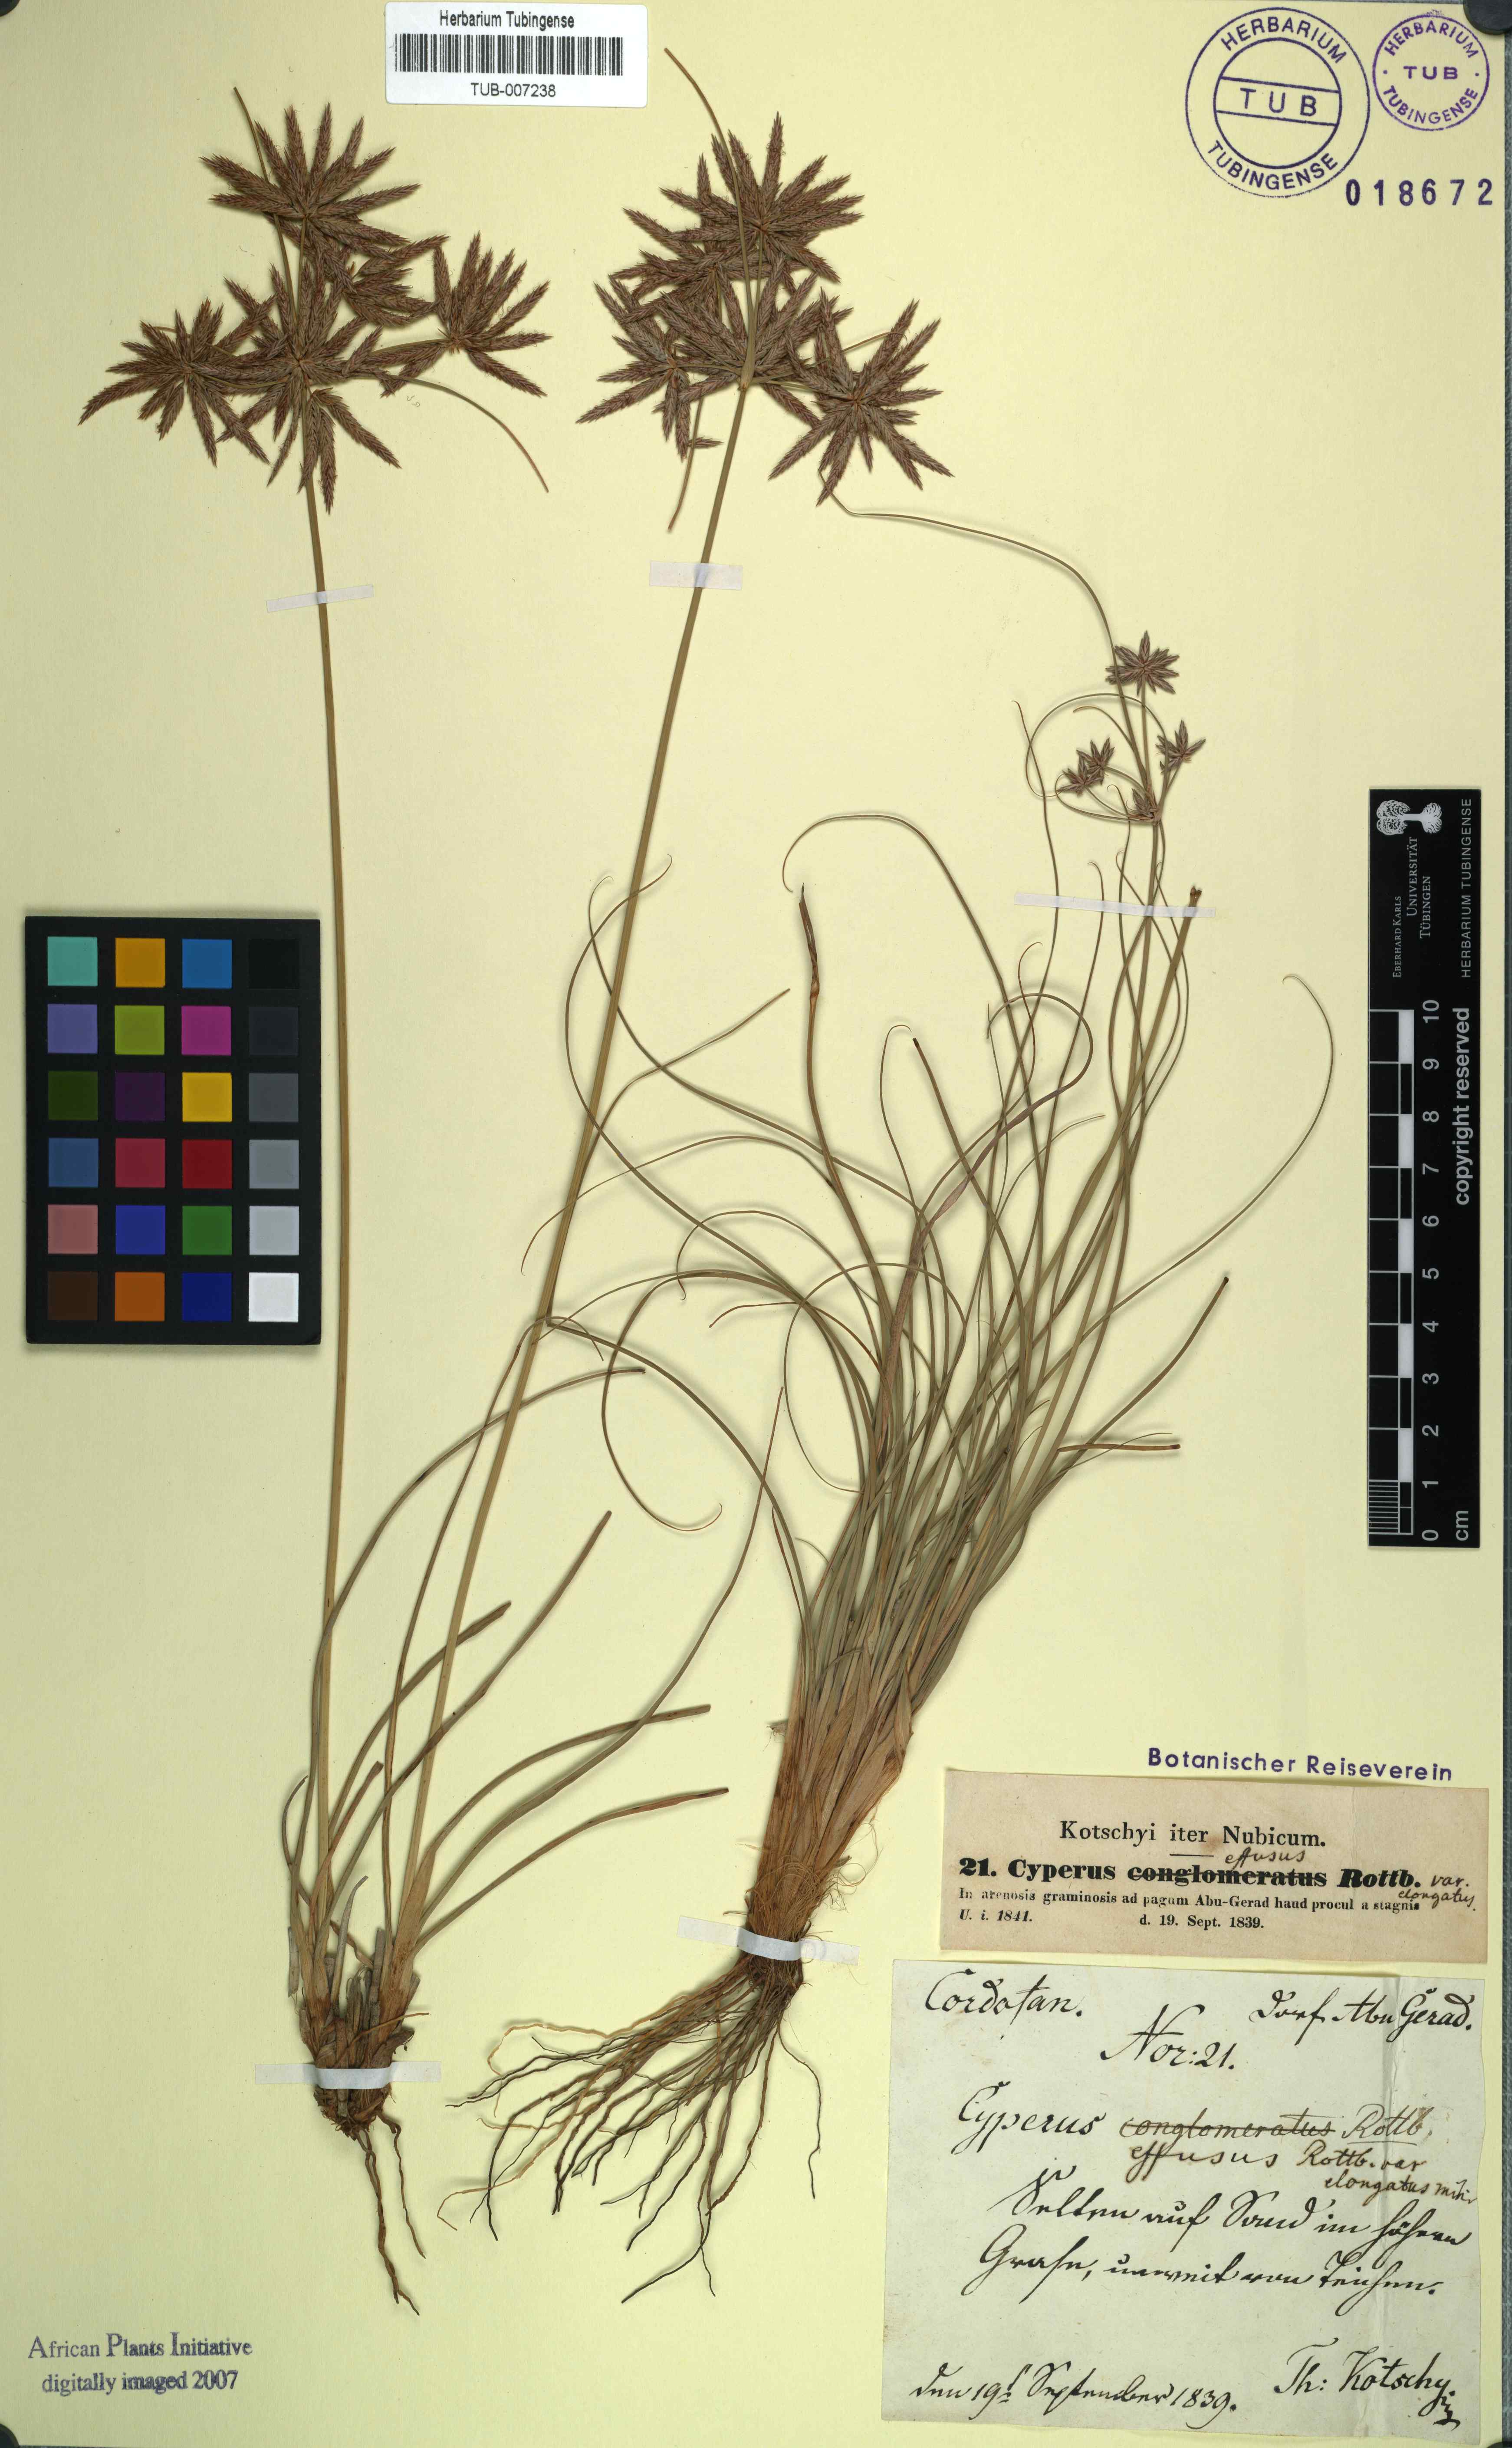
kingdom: Plantae
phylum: Tracheophyta
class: Liliopsida
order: Poales
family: Cyperaceae
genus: Cyperus
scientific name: Cyperus conglomeratus
